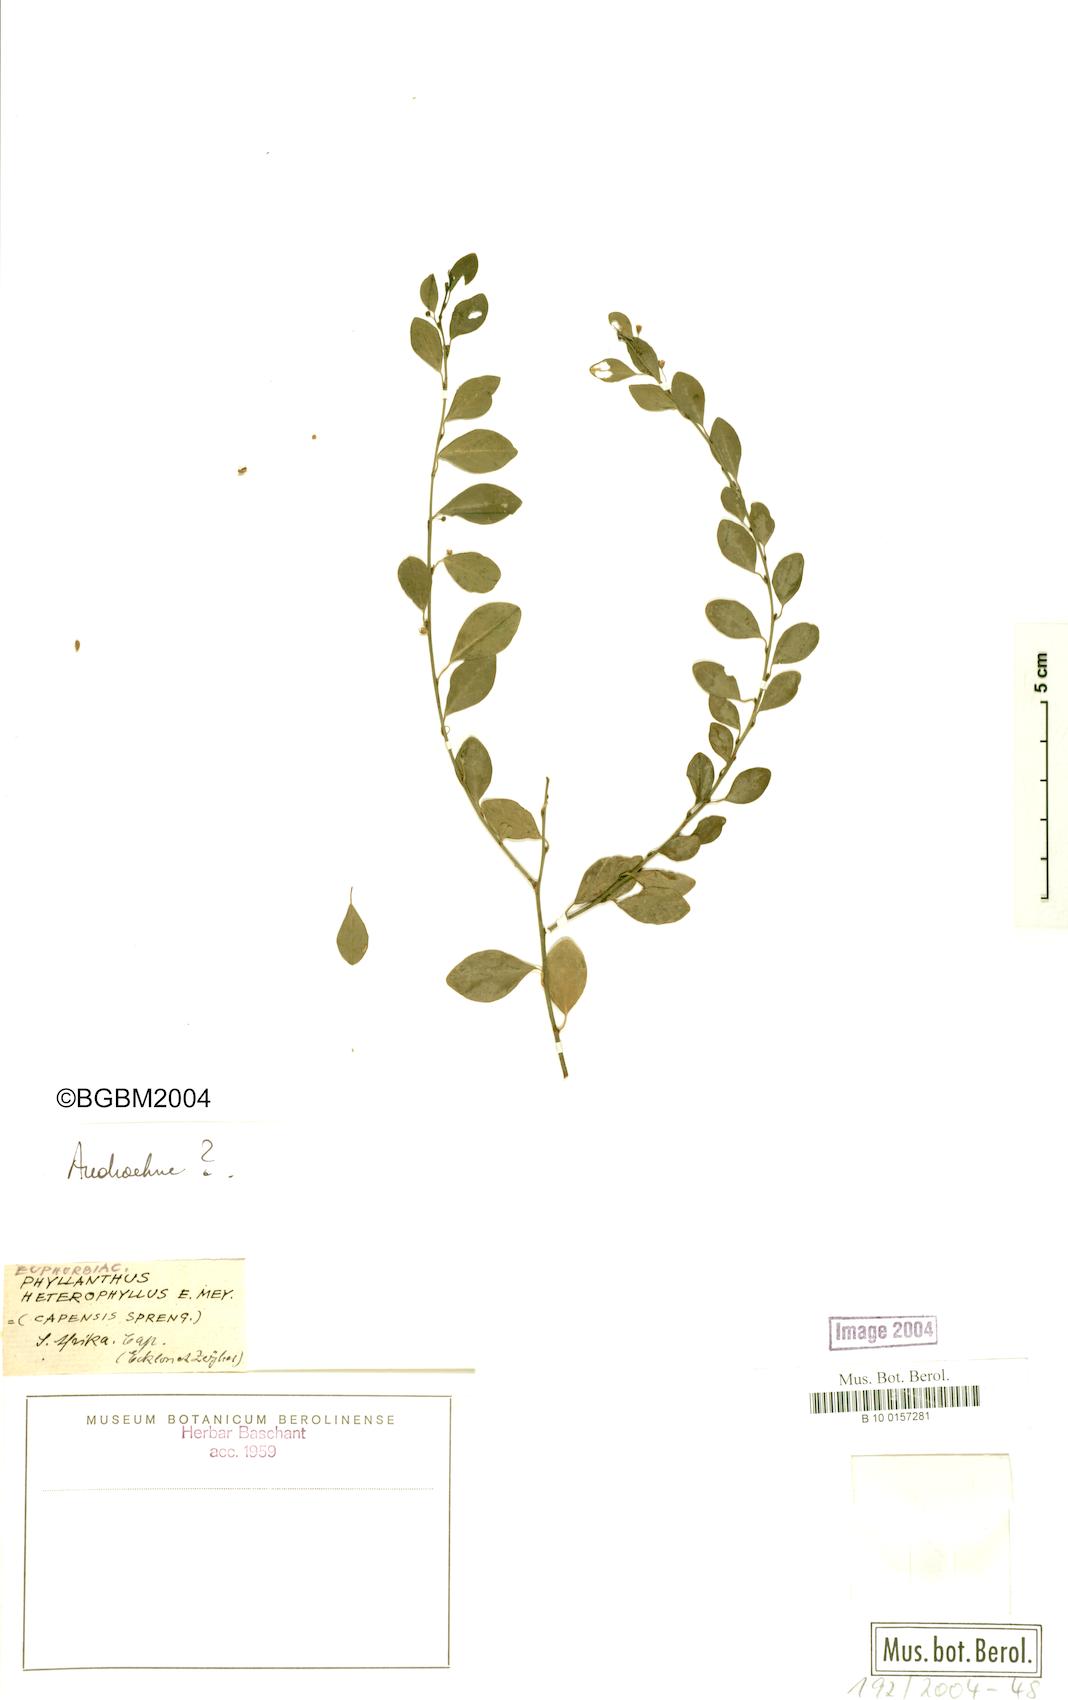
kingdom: Plantae
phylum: Tracheophyta
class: Magnoliopsida
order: Malpighiales
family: Phyllanthaceae
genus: Phyllanthus
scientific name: Phyllanthus
